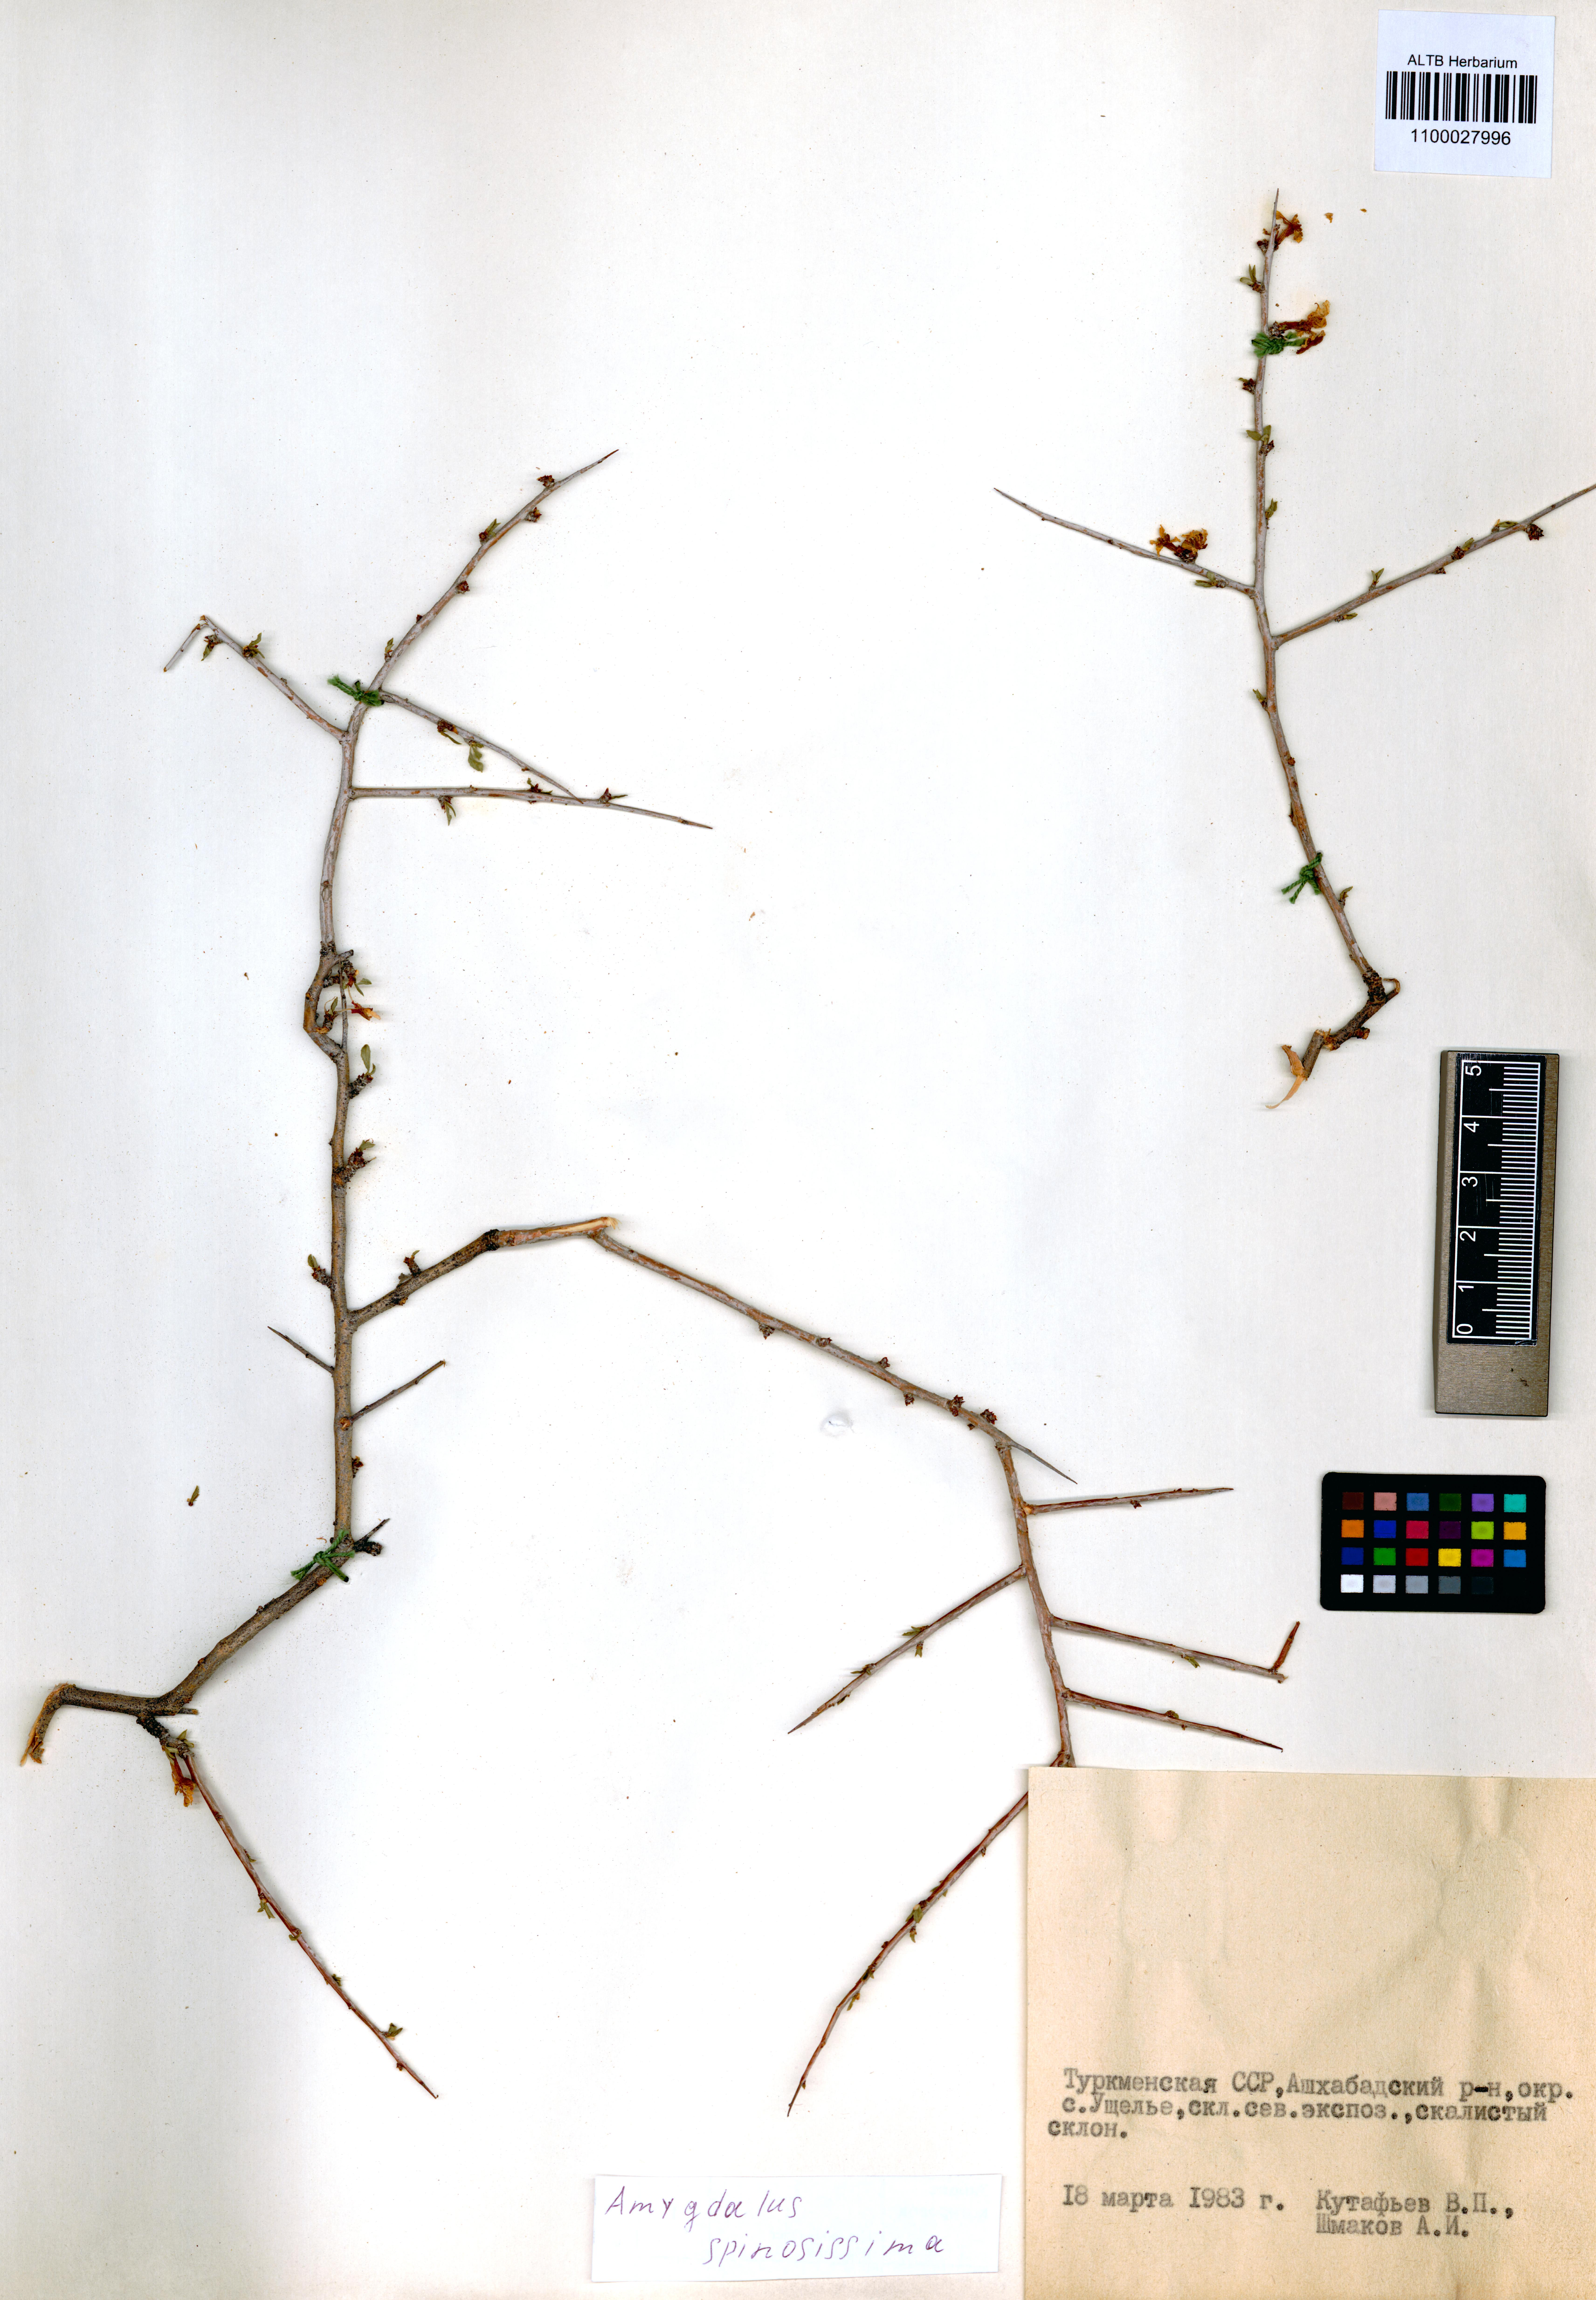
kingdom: Plantae
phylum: Tracheophyta
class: Magnoliopsida
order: Rosales
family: Rosaceae
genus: Prunus
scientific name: Prunus spinosissima
